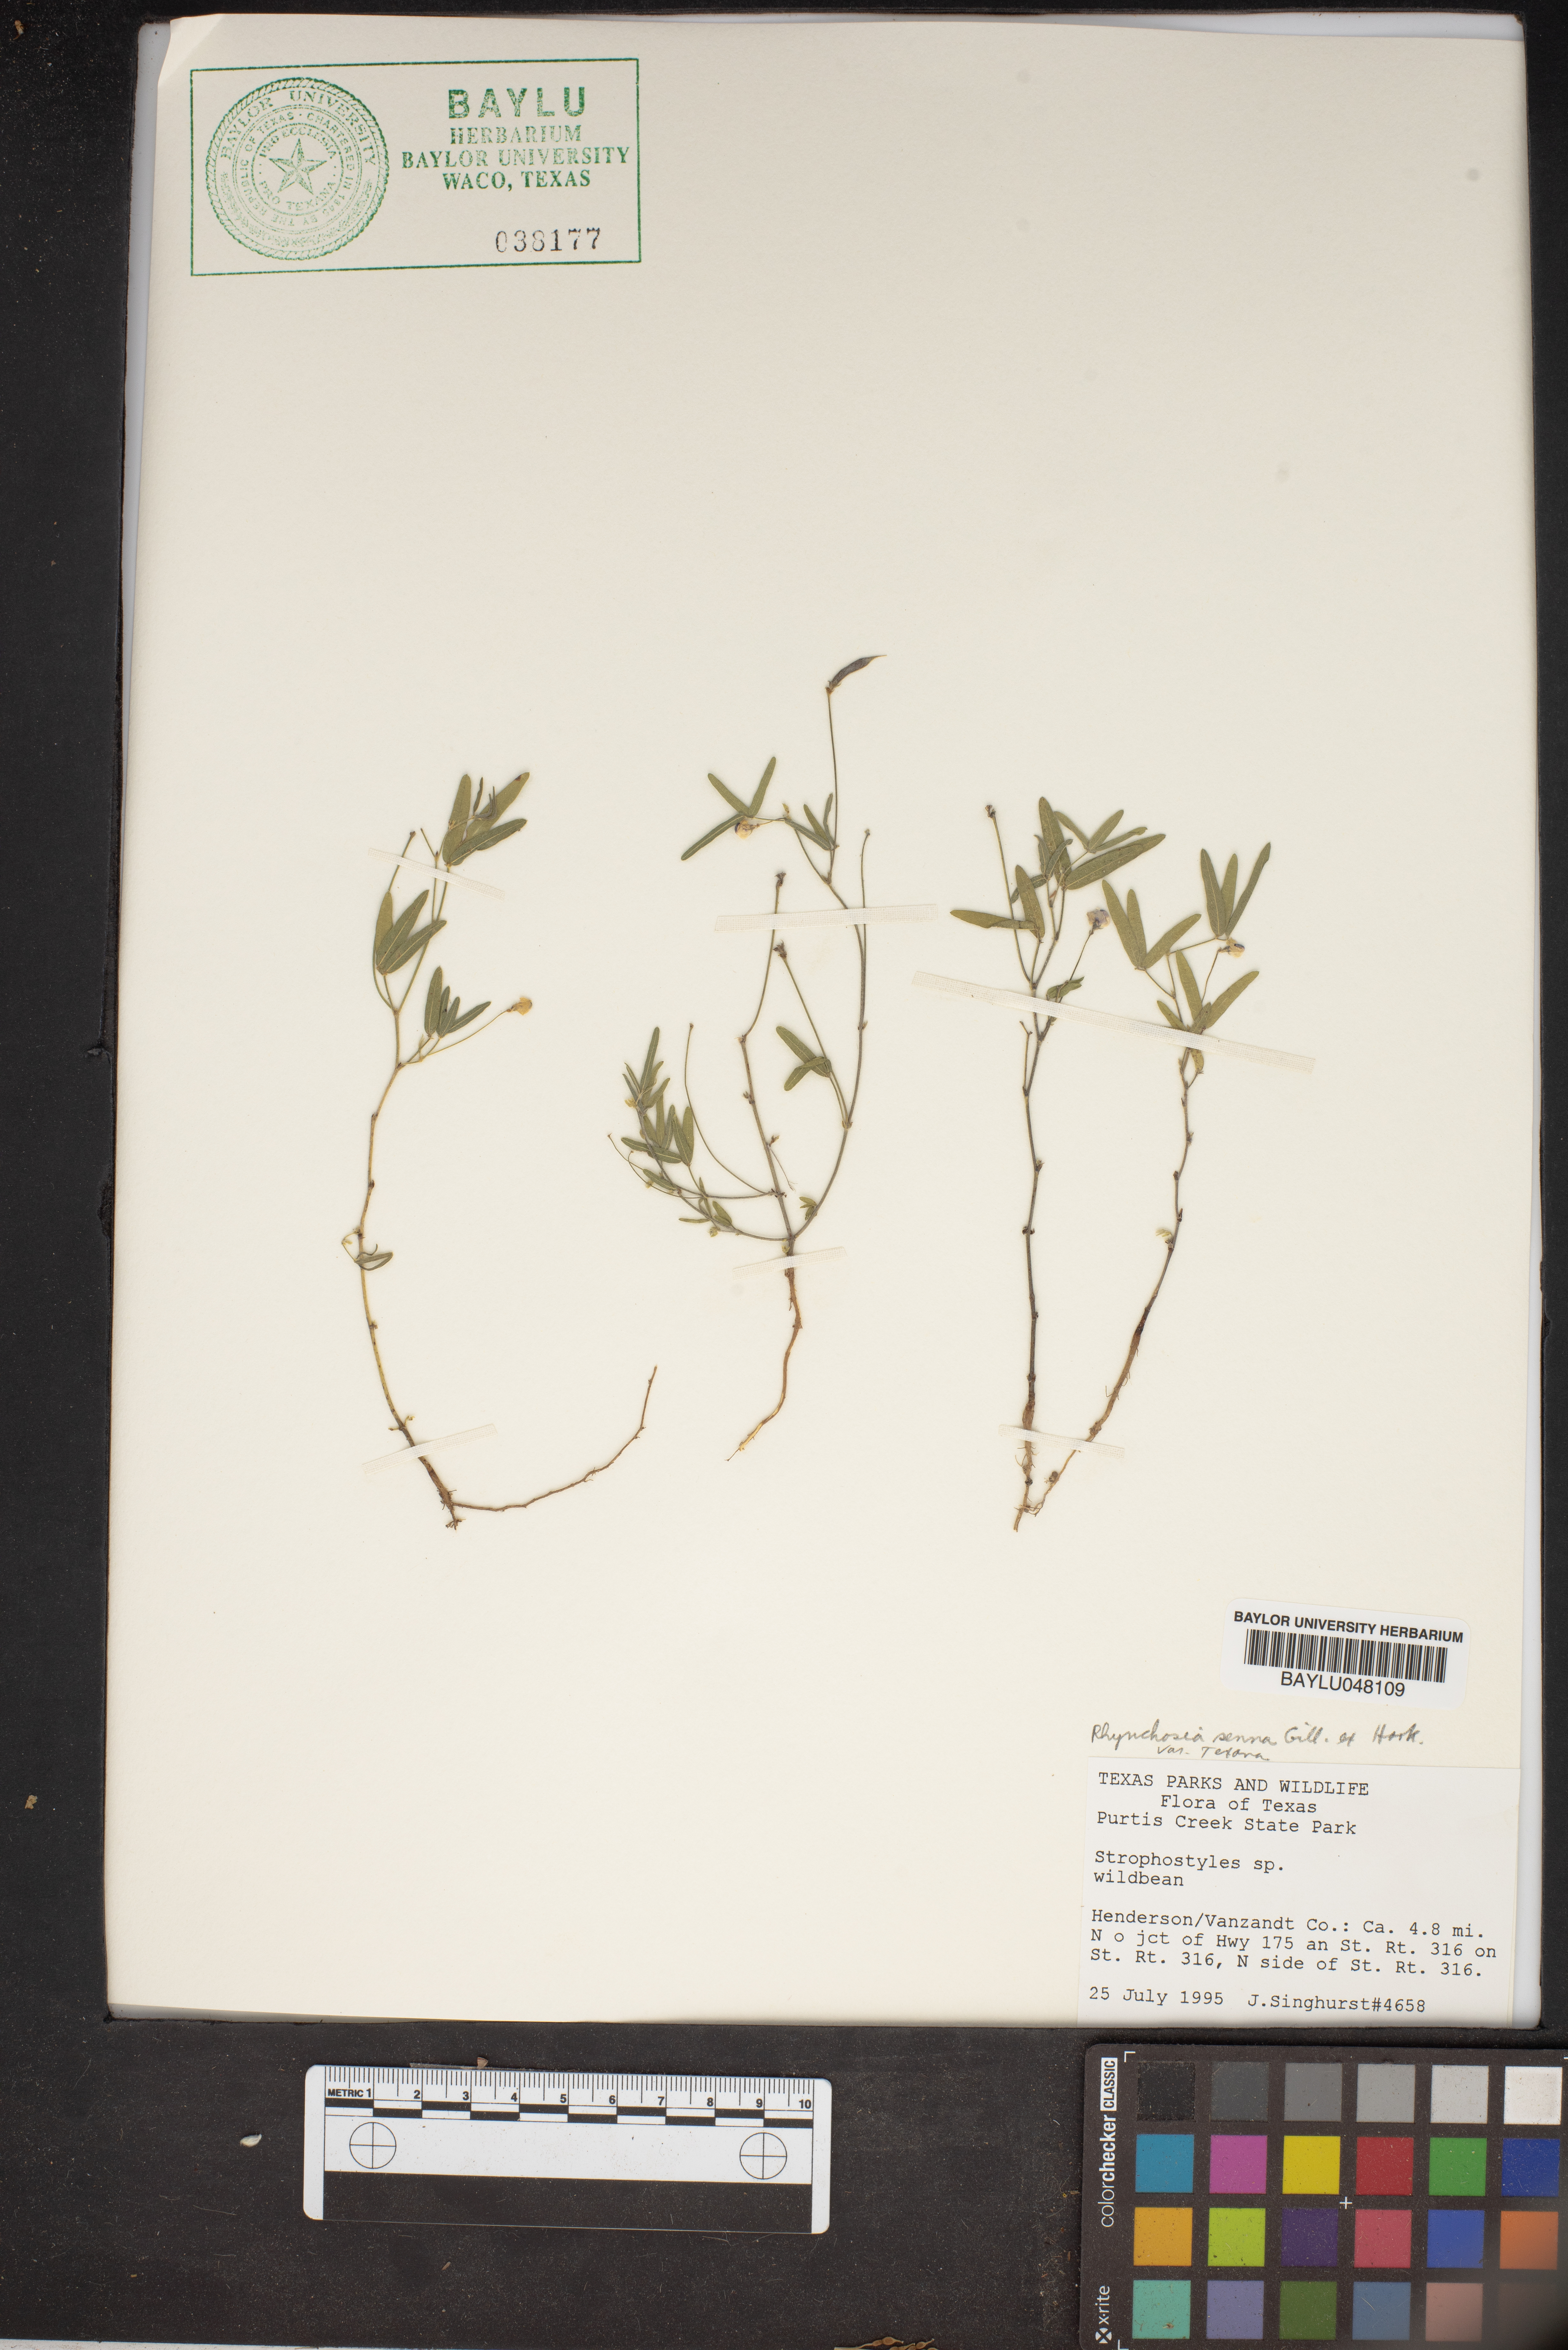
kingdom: Plantae
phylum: Tracheophyta
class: Magnoliopsida
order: Fabales
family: Fabaceae
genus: Rhynchosia
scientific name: Rhynchosia senna
